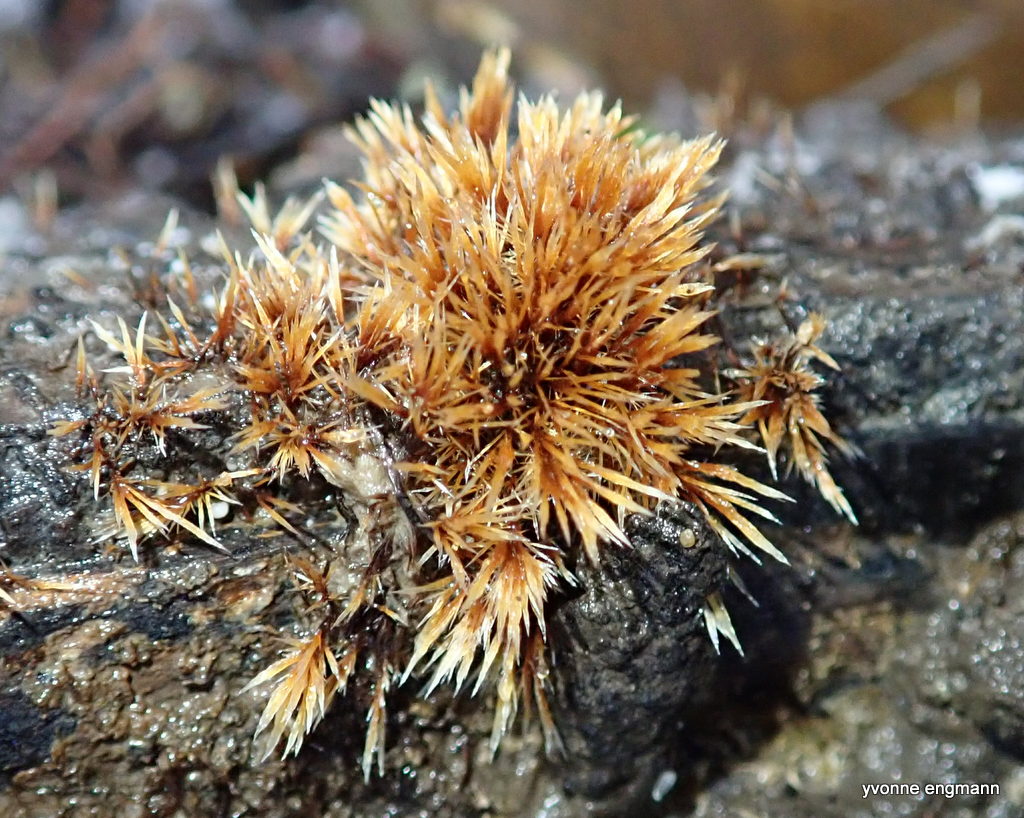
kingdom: Fungi
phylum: Basidiomycota
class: Agaricomycetes
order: Agaricales
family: Psathyrellaceae
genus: Ozonium
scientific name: Ozonium
